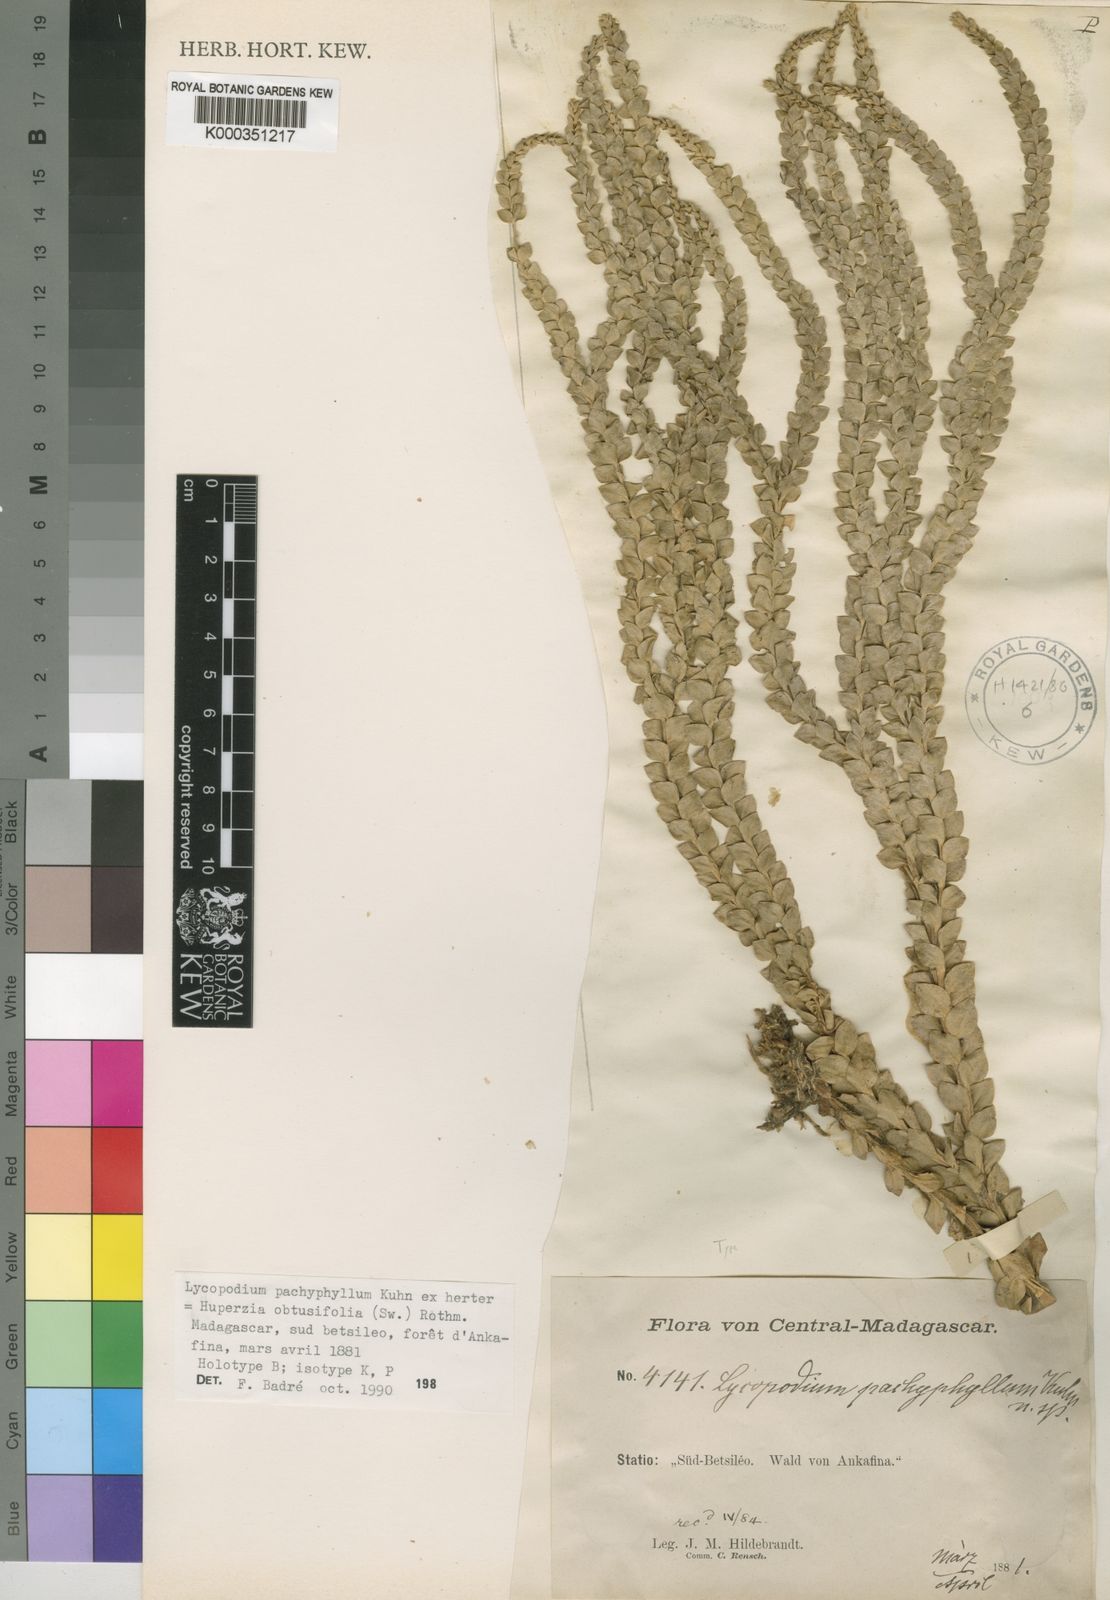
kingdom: Plantae
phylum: Tracheophyta
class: Lycopodiopsida
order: Lycopodiales
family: Lycopodiaceae
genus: Phlegmariurus
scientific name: Phlegmariurus obtusifolius
